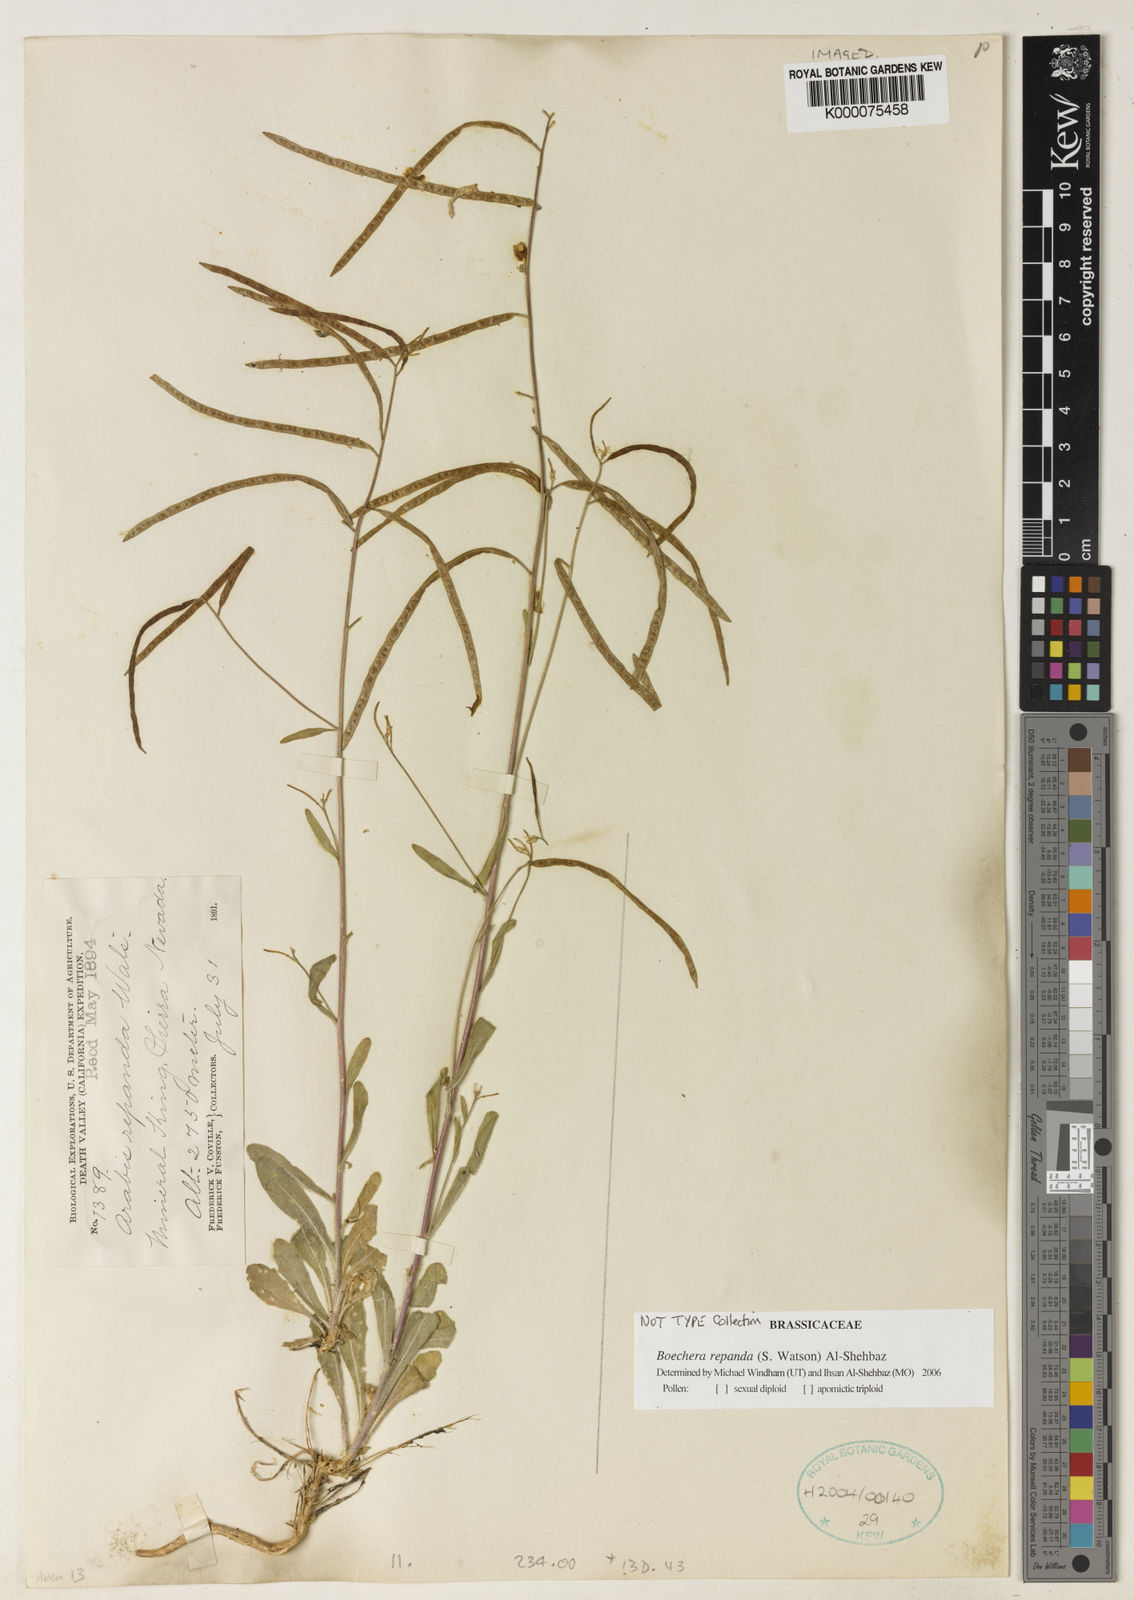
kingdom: Plantae
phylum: Tracheophyta
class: Magnoliopsida
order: Brassicales
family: Brassicaceae
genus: Yosemitea
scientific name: Yosemitea repanda
